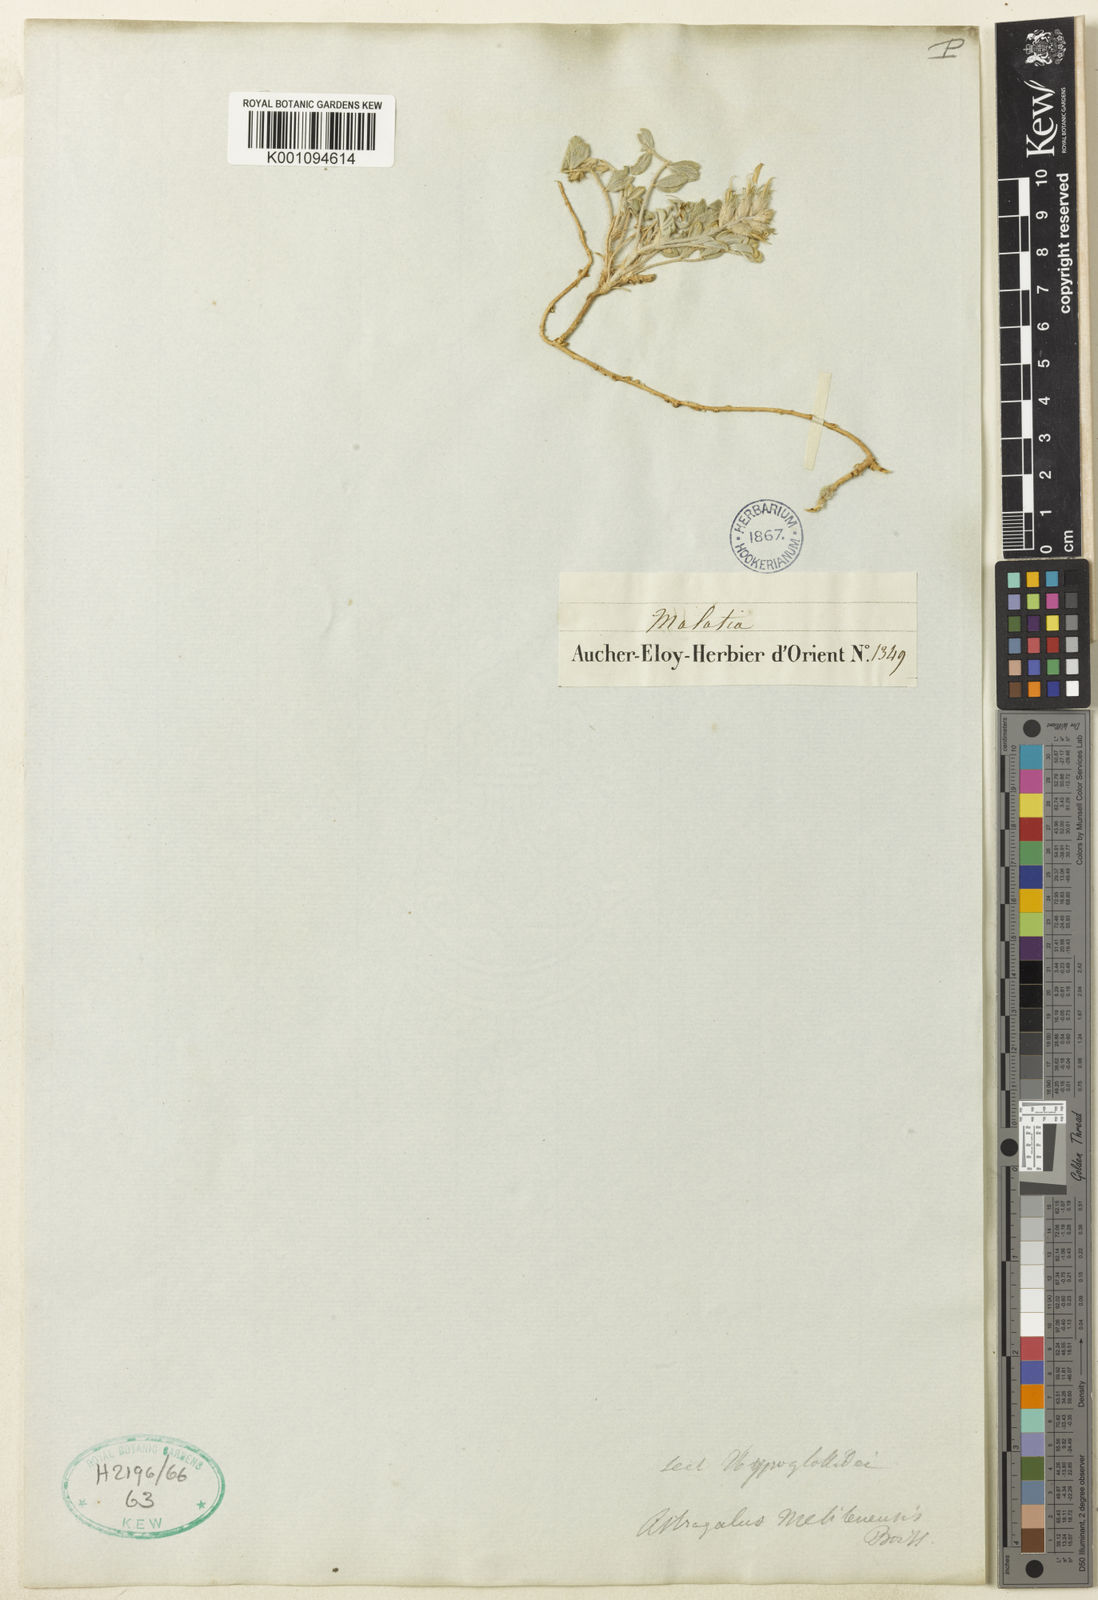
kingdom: Plantae
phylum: Tracheophyta
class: Magnoliopsida
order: Fabales
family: Fabaceae
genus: Astragalus
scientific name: Astragalus
